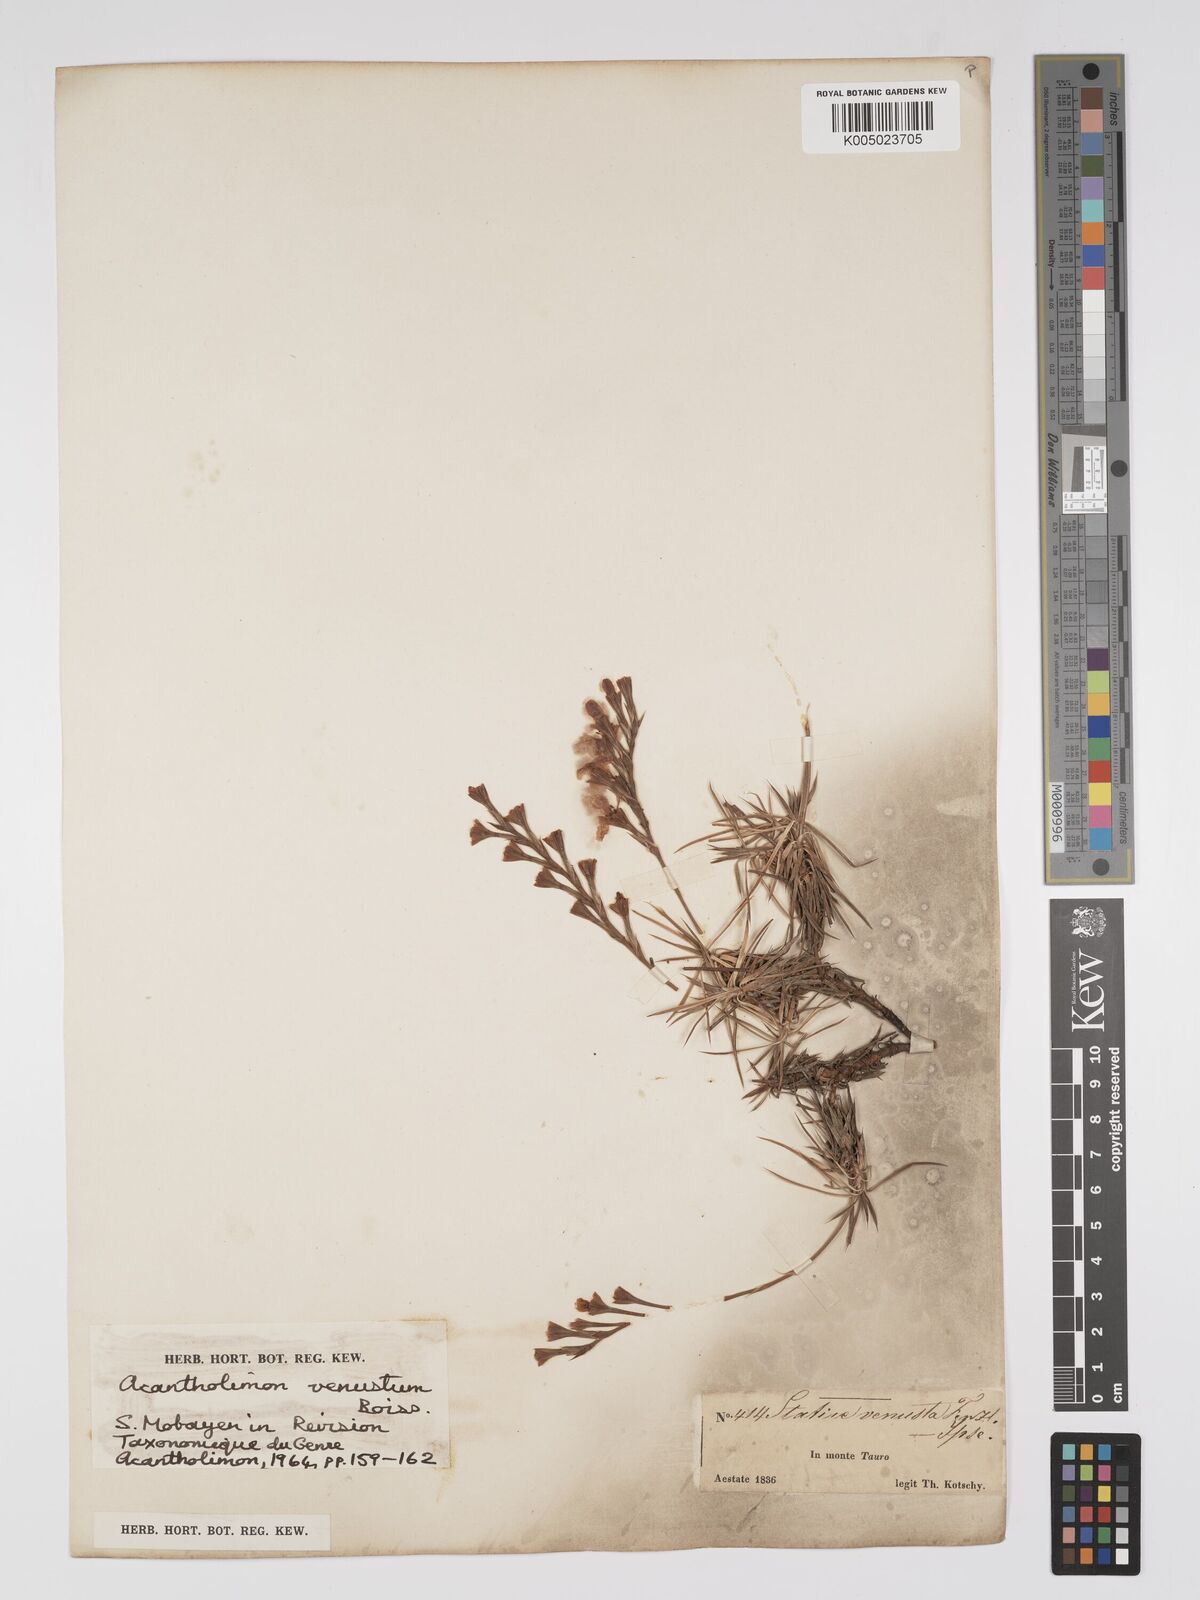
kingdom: Plantae
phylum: Tracheophyta
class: Magnoliopsida
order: Caryophyllales
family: Plumbaginaceae
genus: Acantholimon
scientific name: Acantholimon venustum
